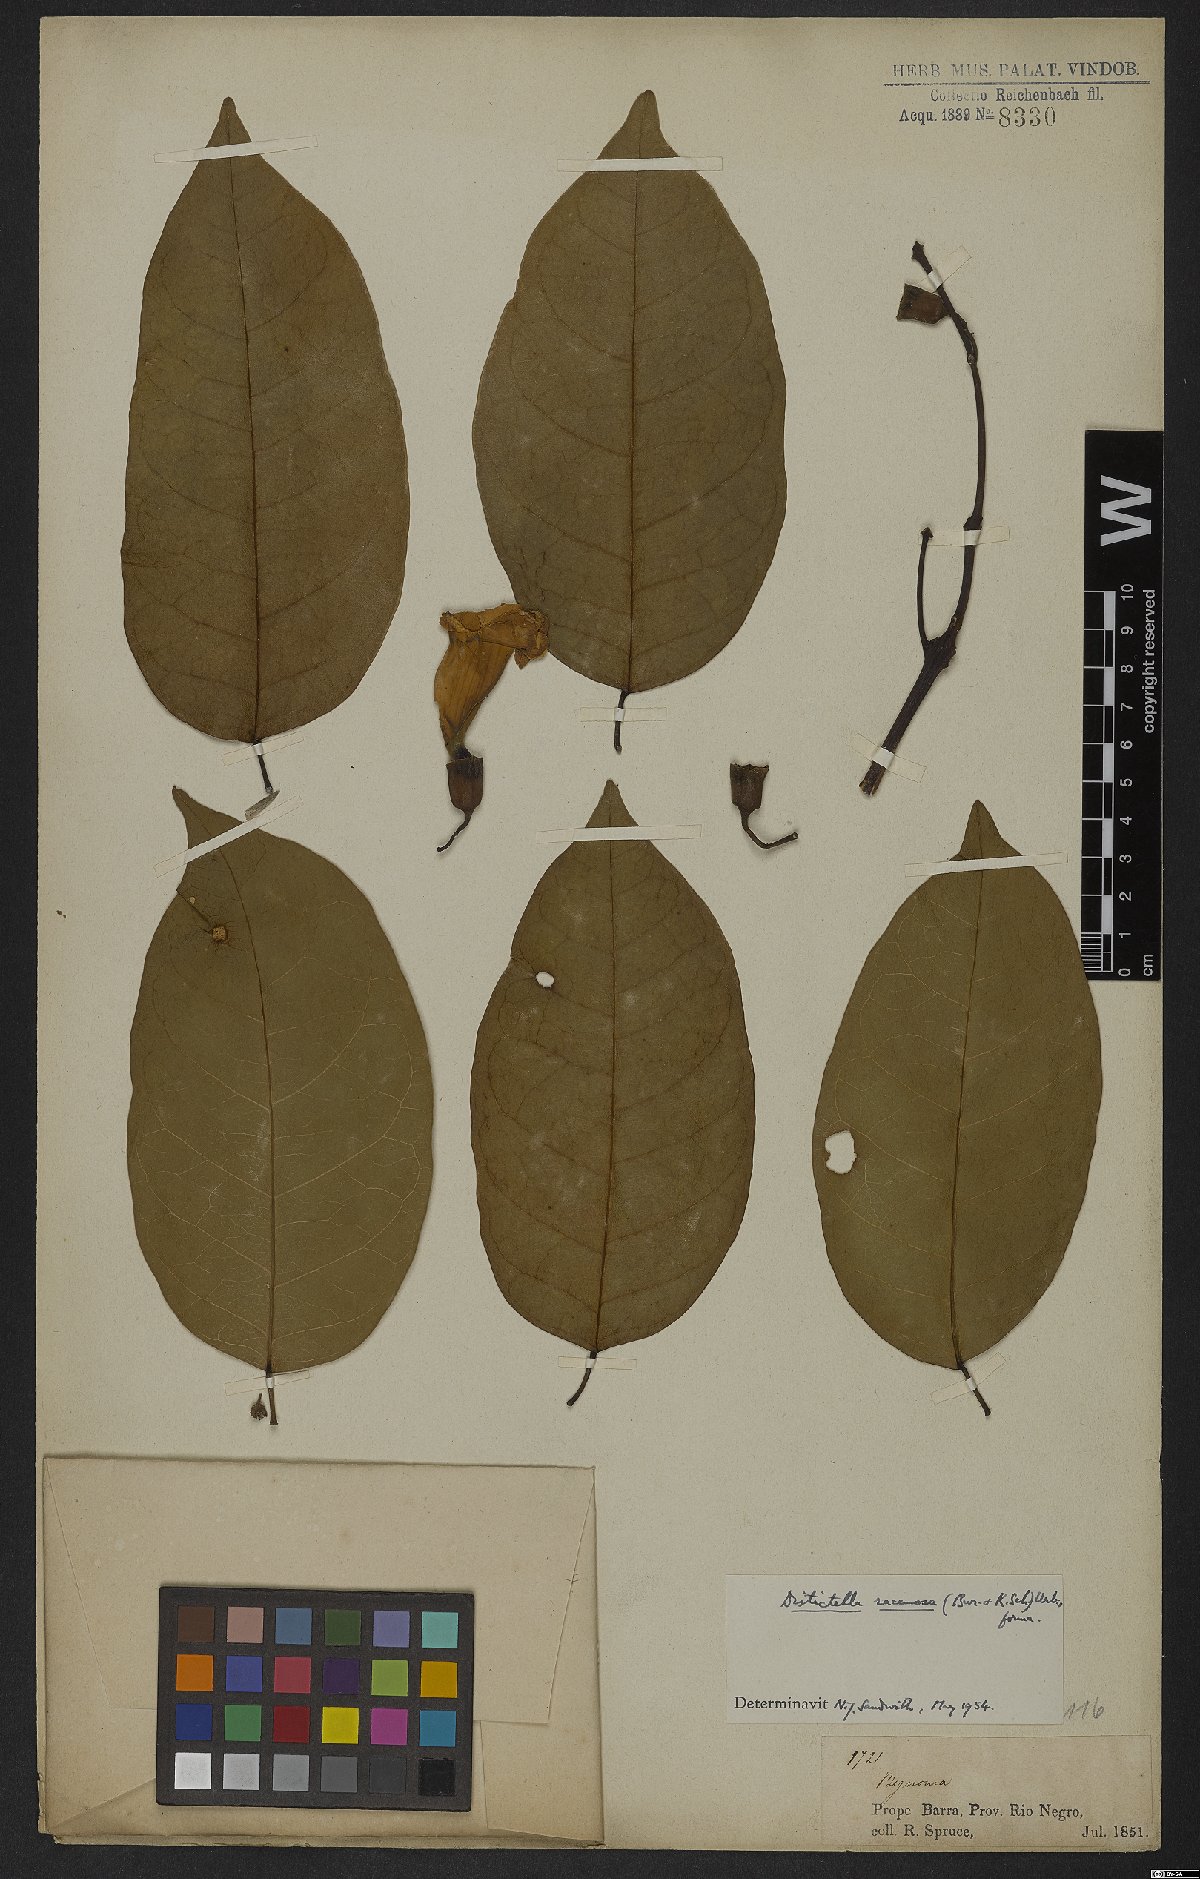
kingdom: Plantae
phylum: Tracheophyta
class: Magnoliopsida
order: Lamiales
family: Bignoniaceae
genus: Amphilophium
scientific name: Amphilophium racemosum
